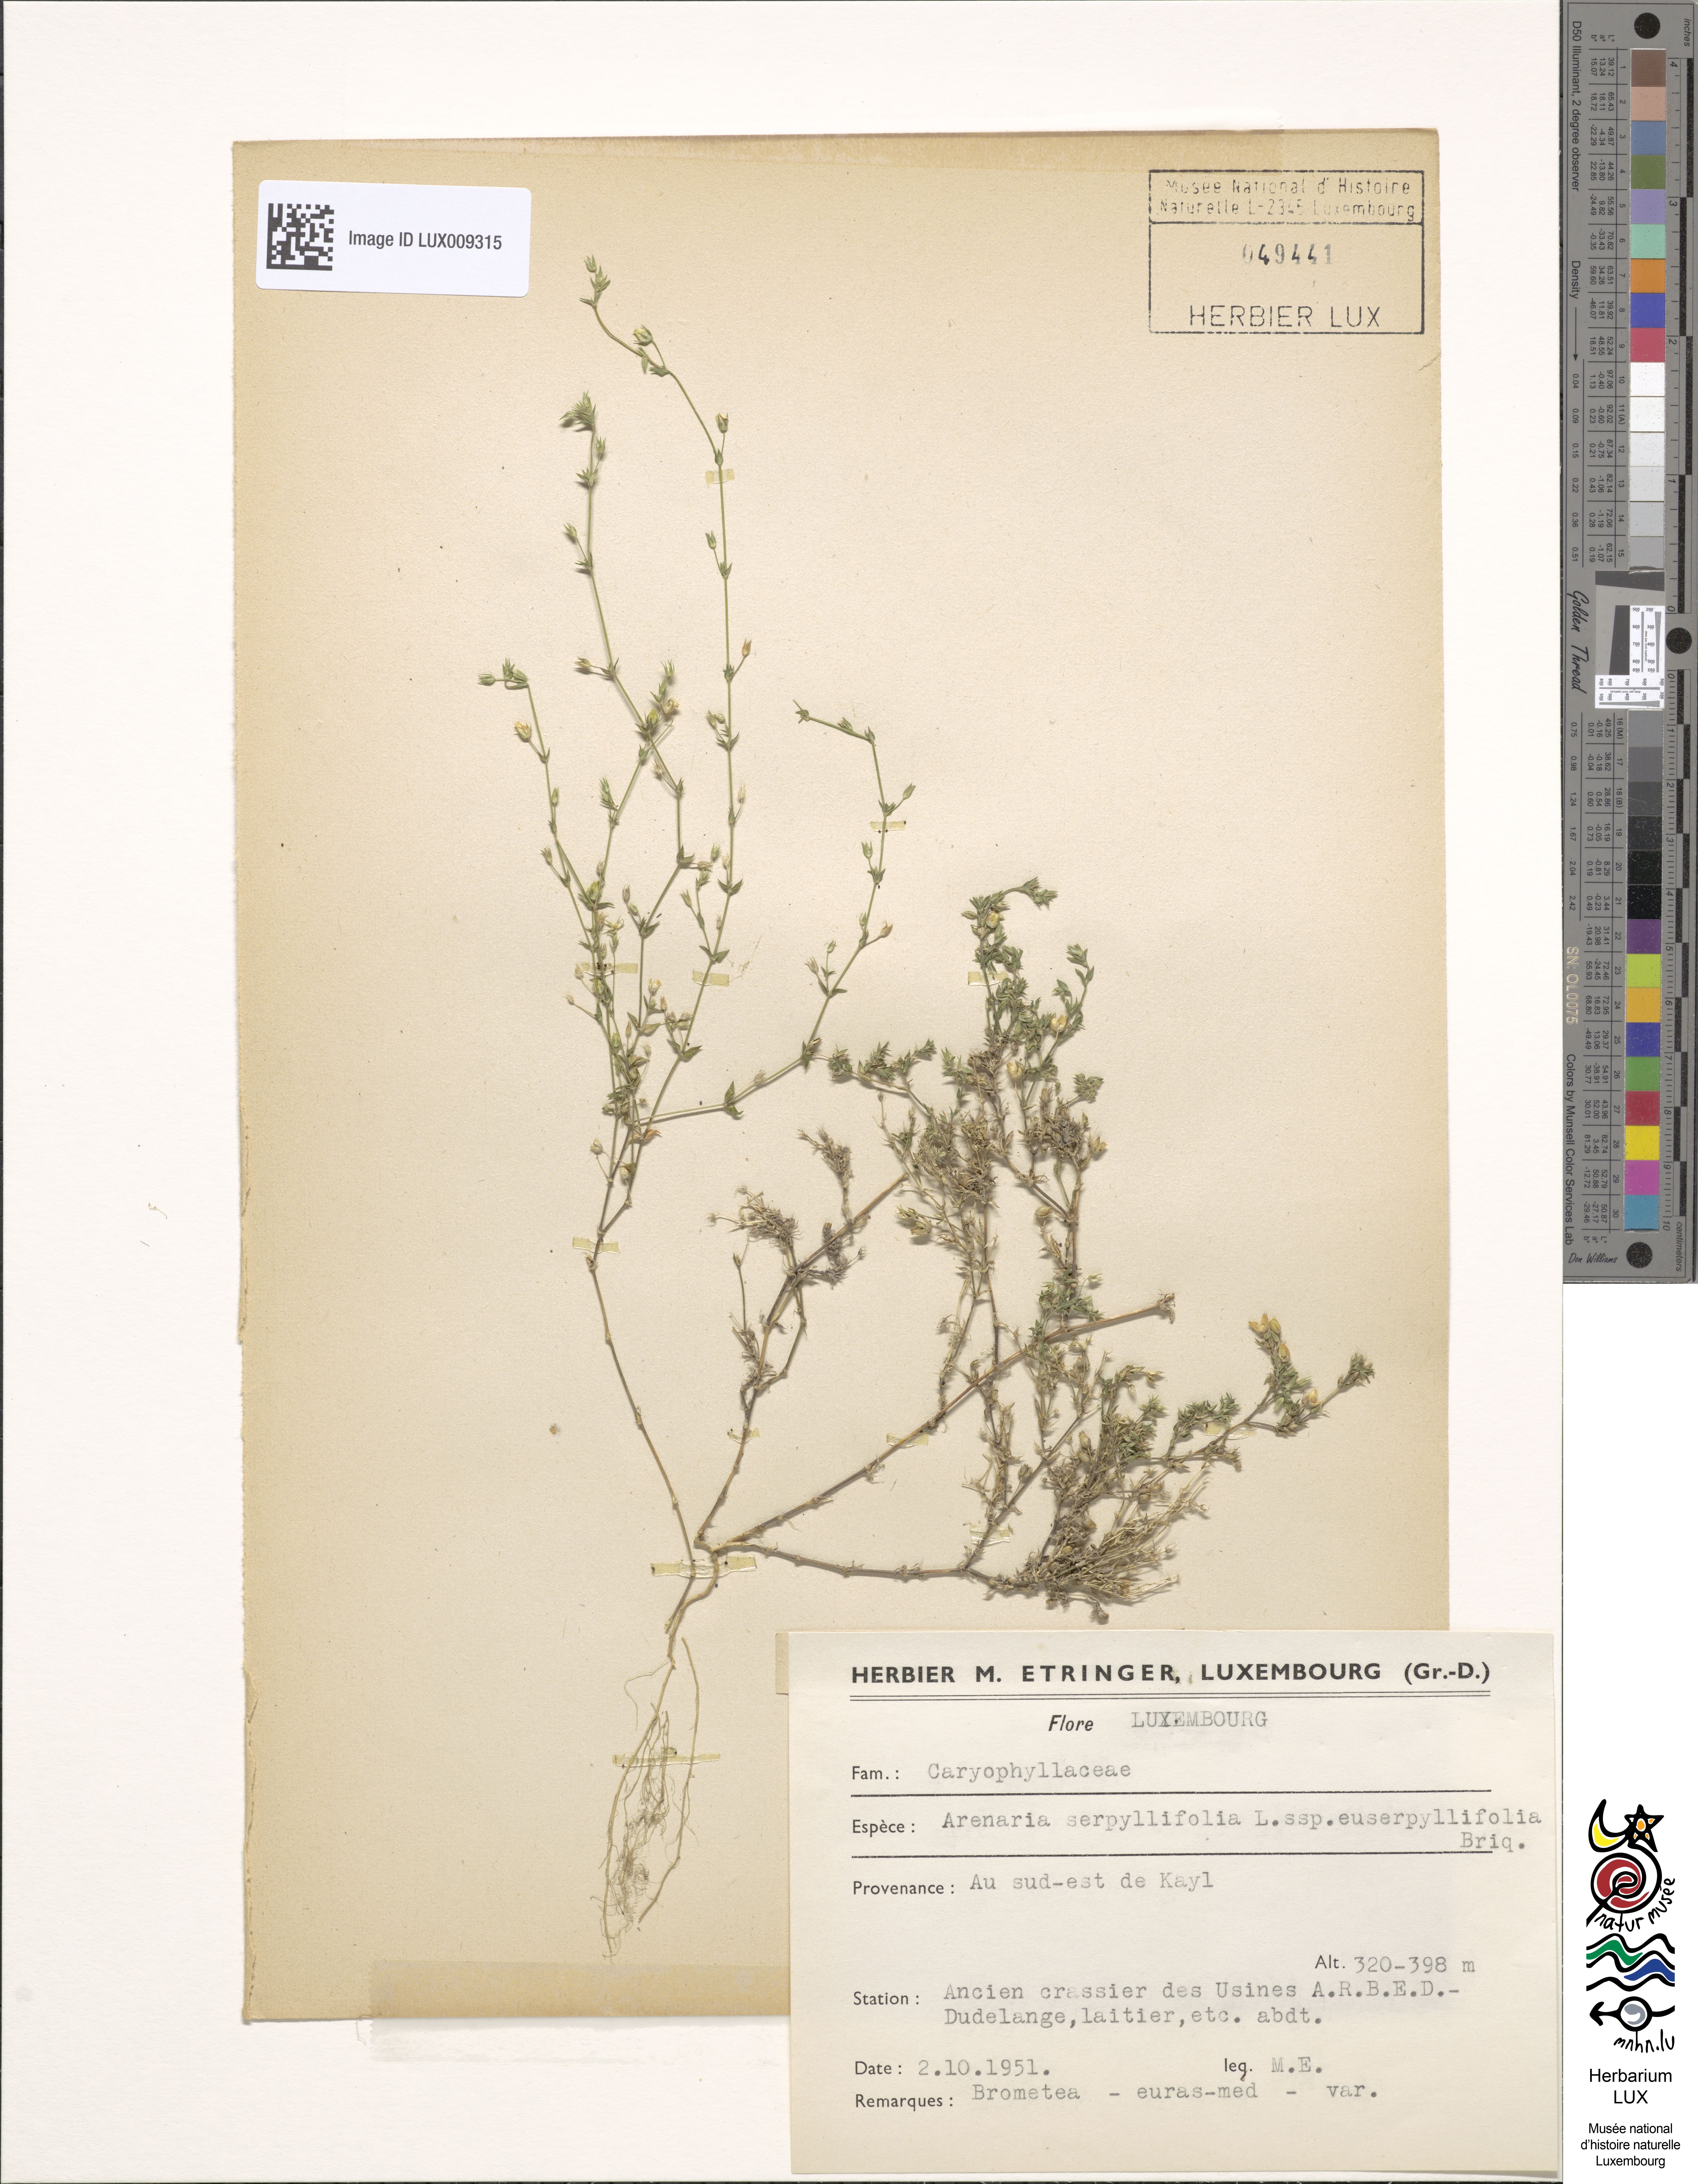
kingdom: Plantae
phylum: Tracheophyta
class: Magnoliopsida
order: Caryophyllales
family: Caryophyllaceae
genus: Arenaria
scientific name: Arenaria serpyllifolia
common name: Thyme-leaved sandwort
